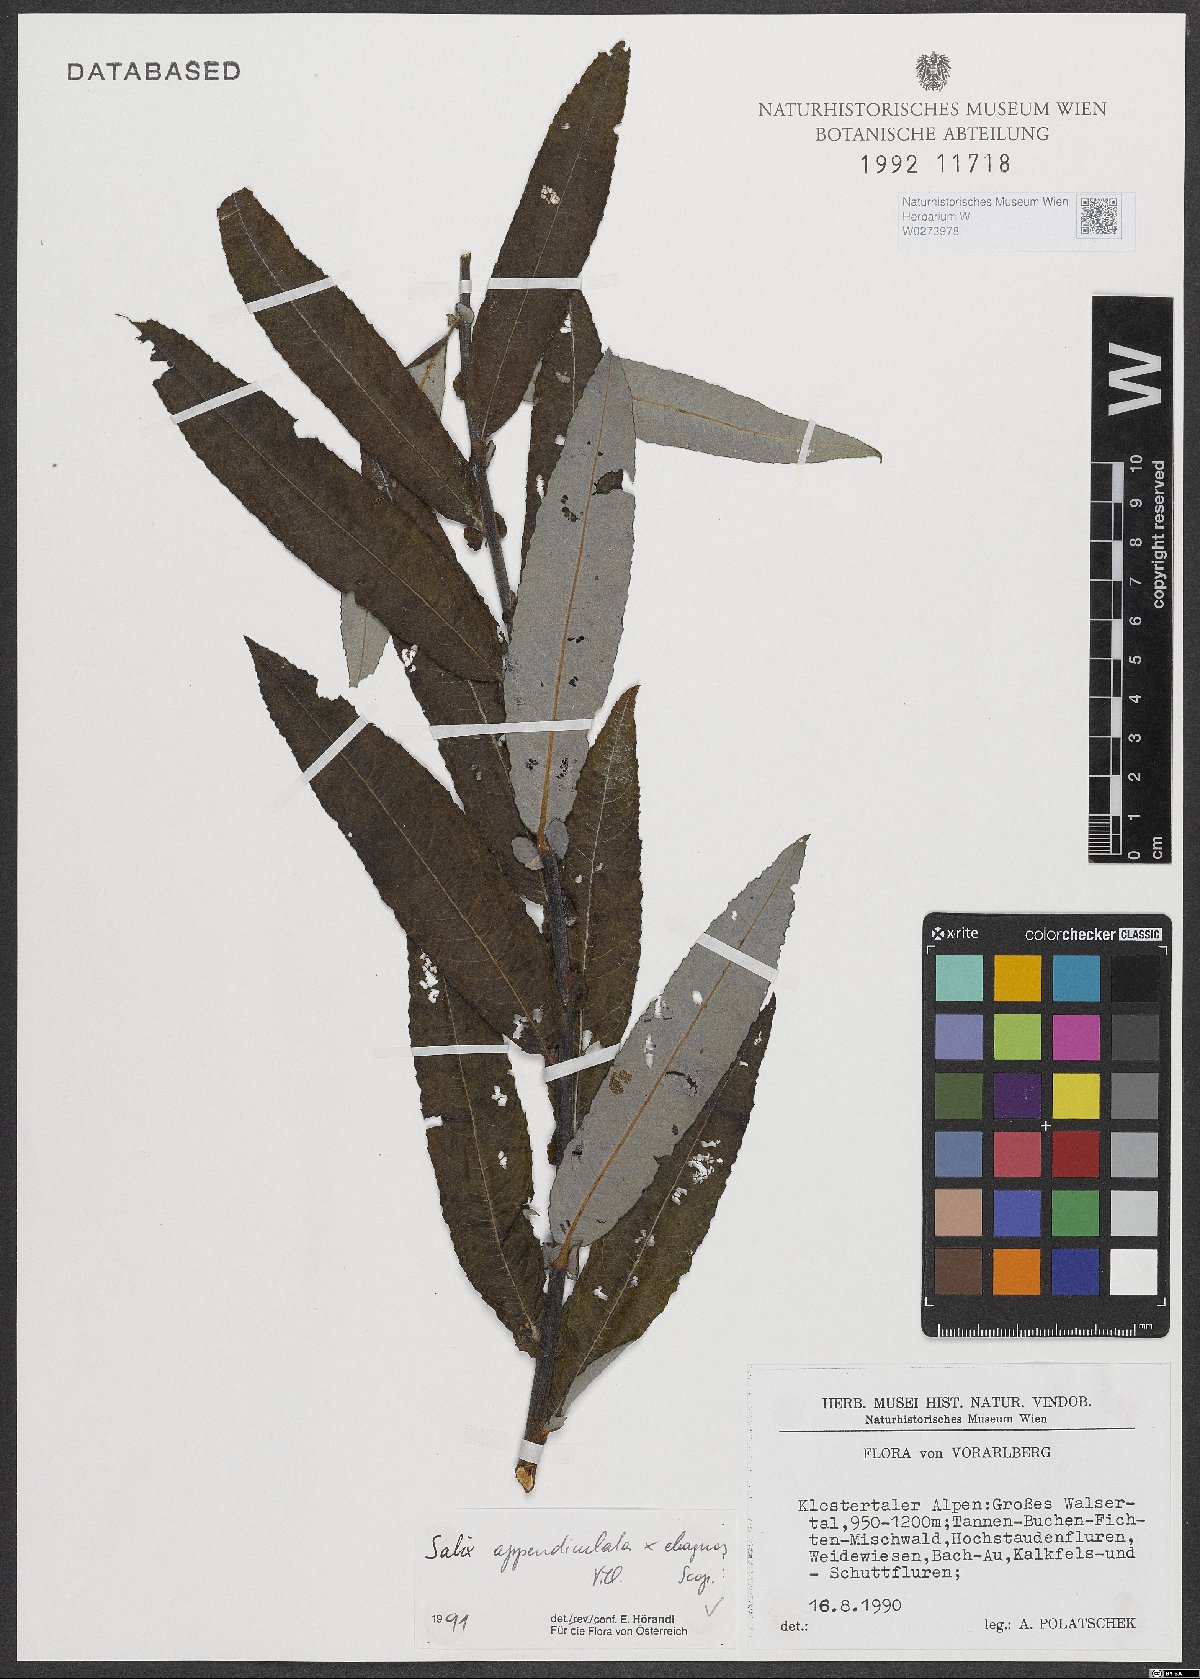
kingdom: Plantae
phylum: Tracheophyta
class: Magnoliopsida
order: Malpighiales
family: Salicaceae
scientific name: Salicaceae
